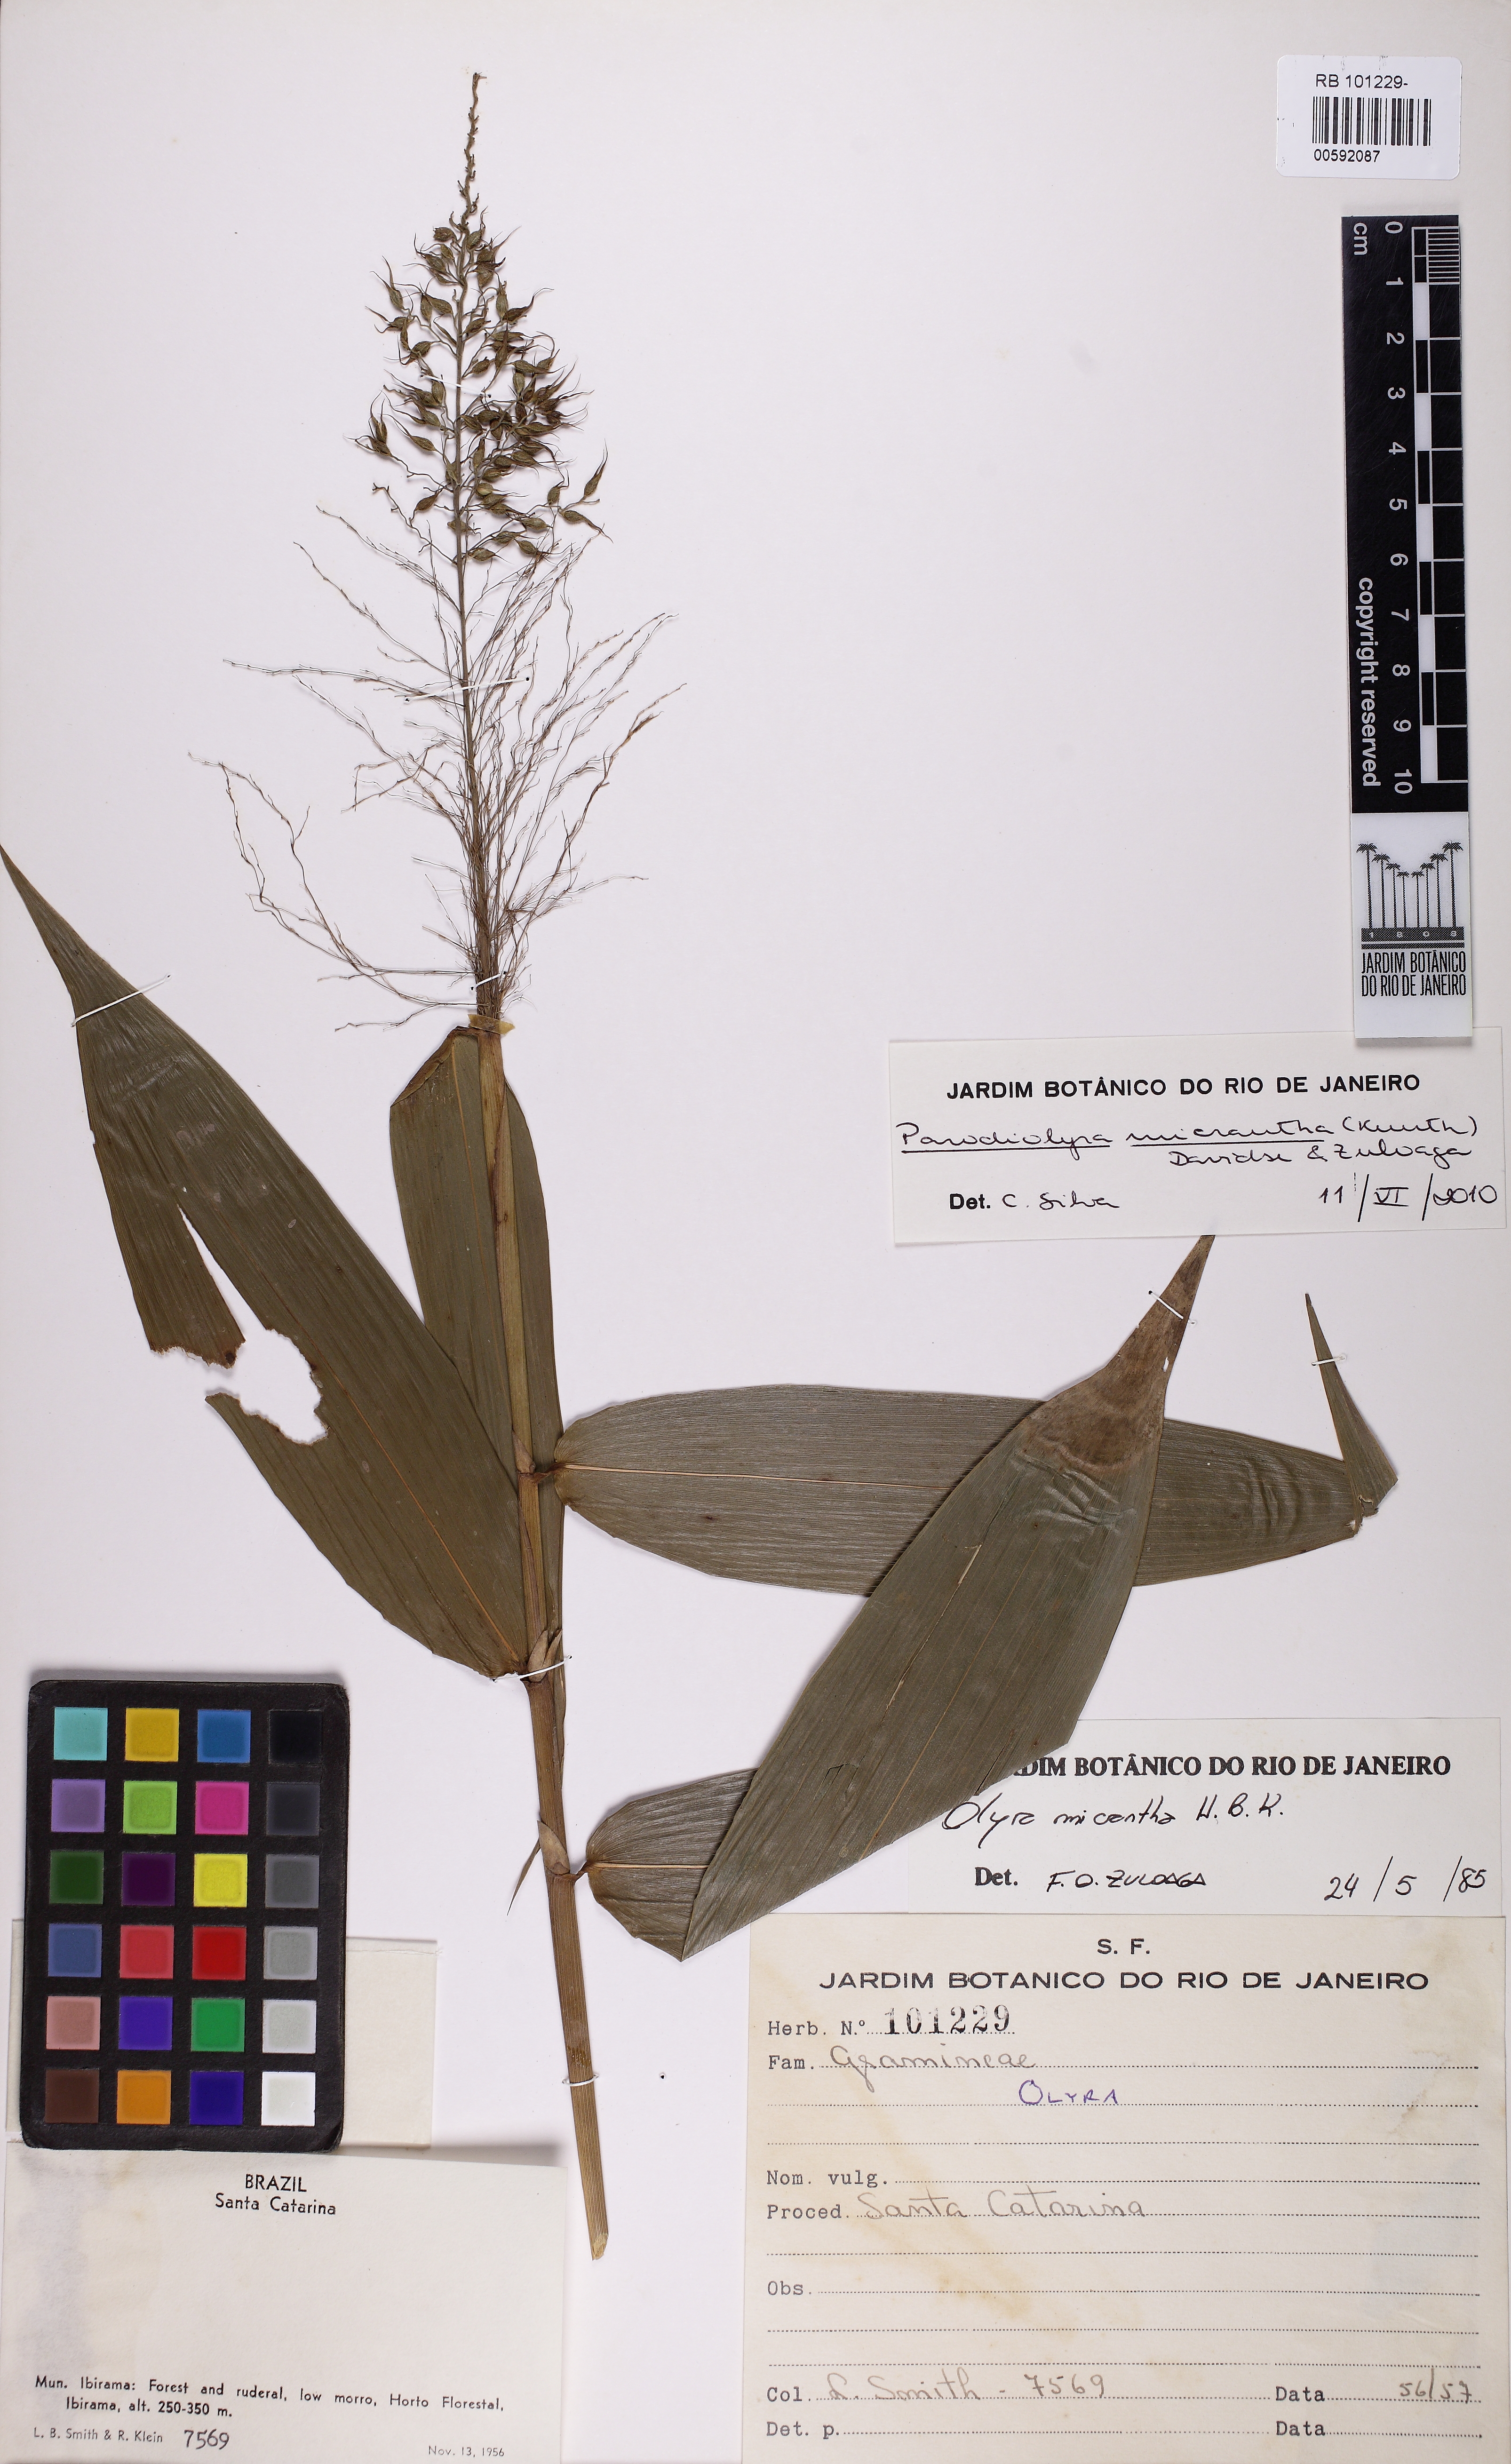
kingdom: Plantae
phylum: Tracheophyta
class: Liliopsida
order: Poales
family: Poaceae
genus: Taquara
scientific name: Taquara micrantha
